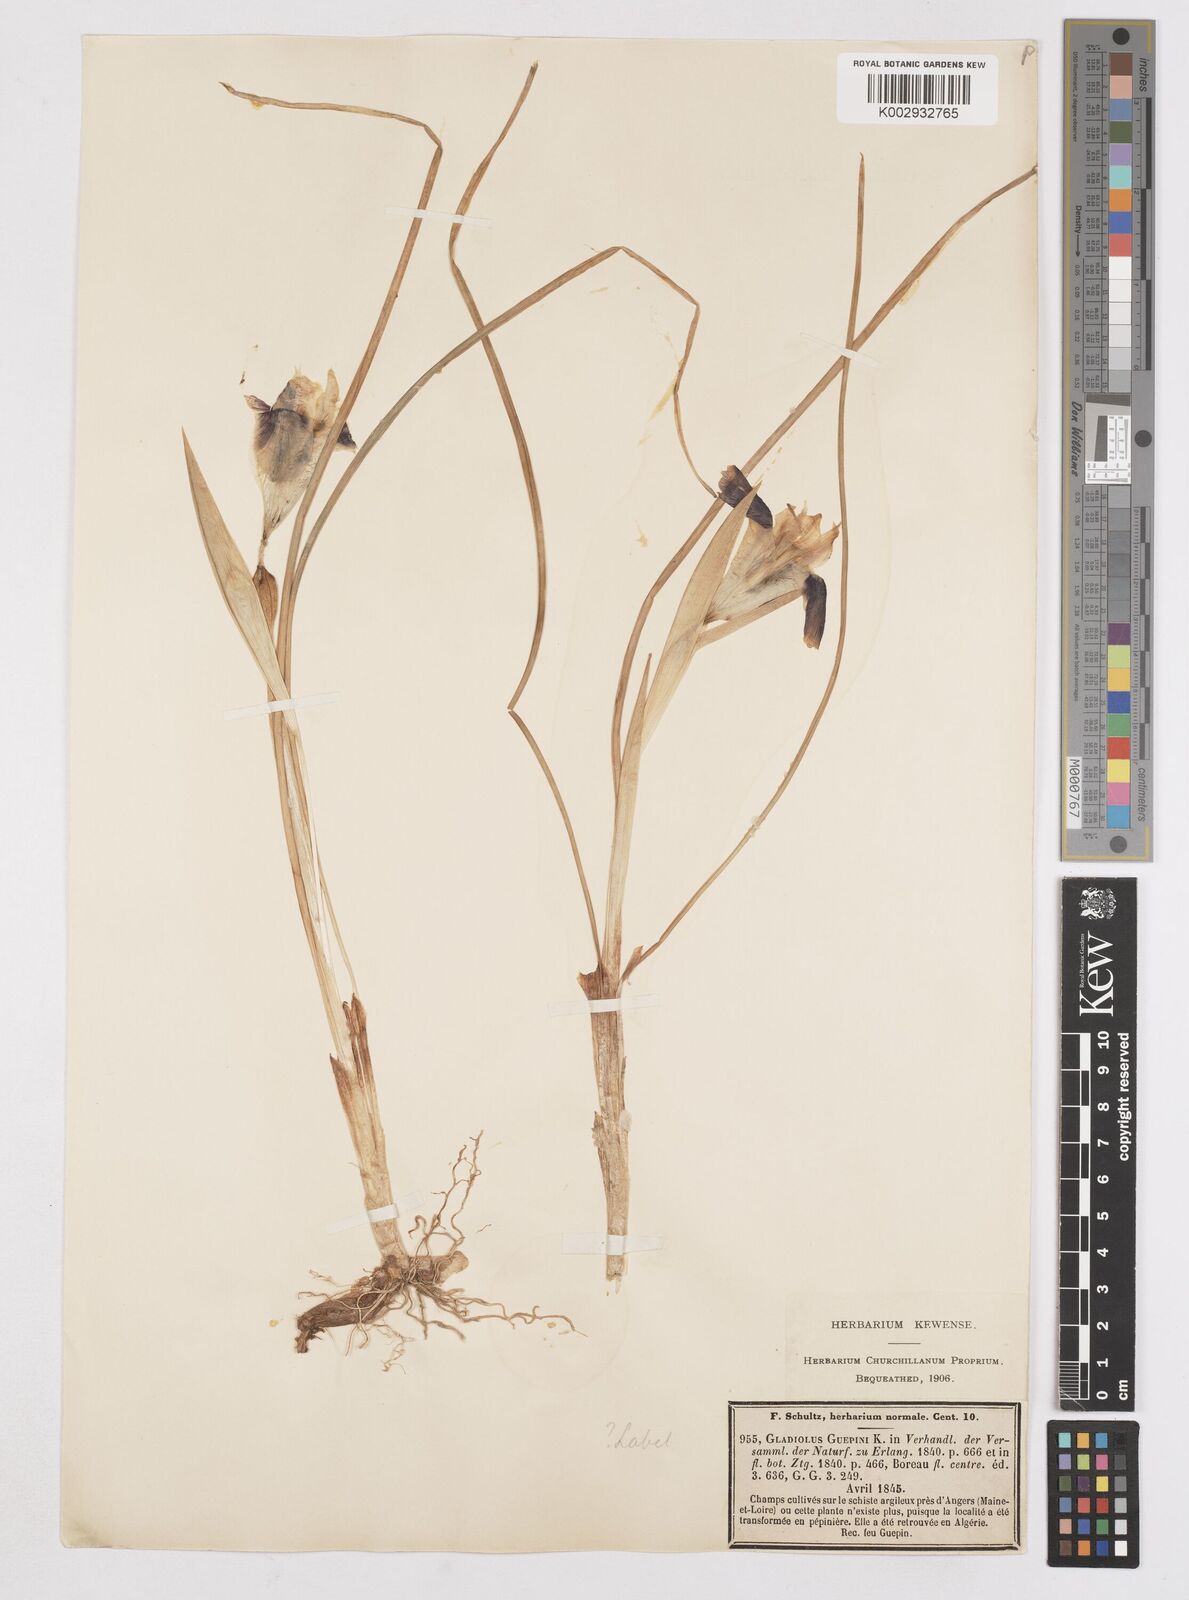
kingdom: Plantae
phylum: Tracheophyta
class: Liliopsida
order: Asparagales
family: Iridaceae
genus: Iris
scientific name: Iris tuberosa
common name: Snake's-head iris
